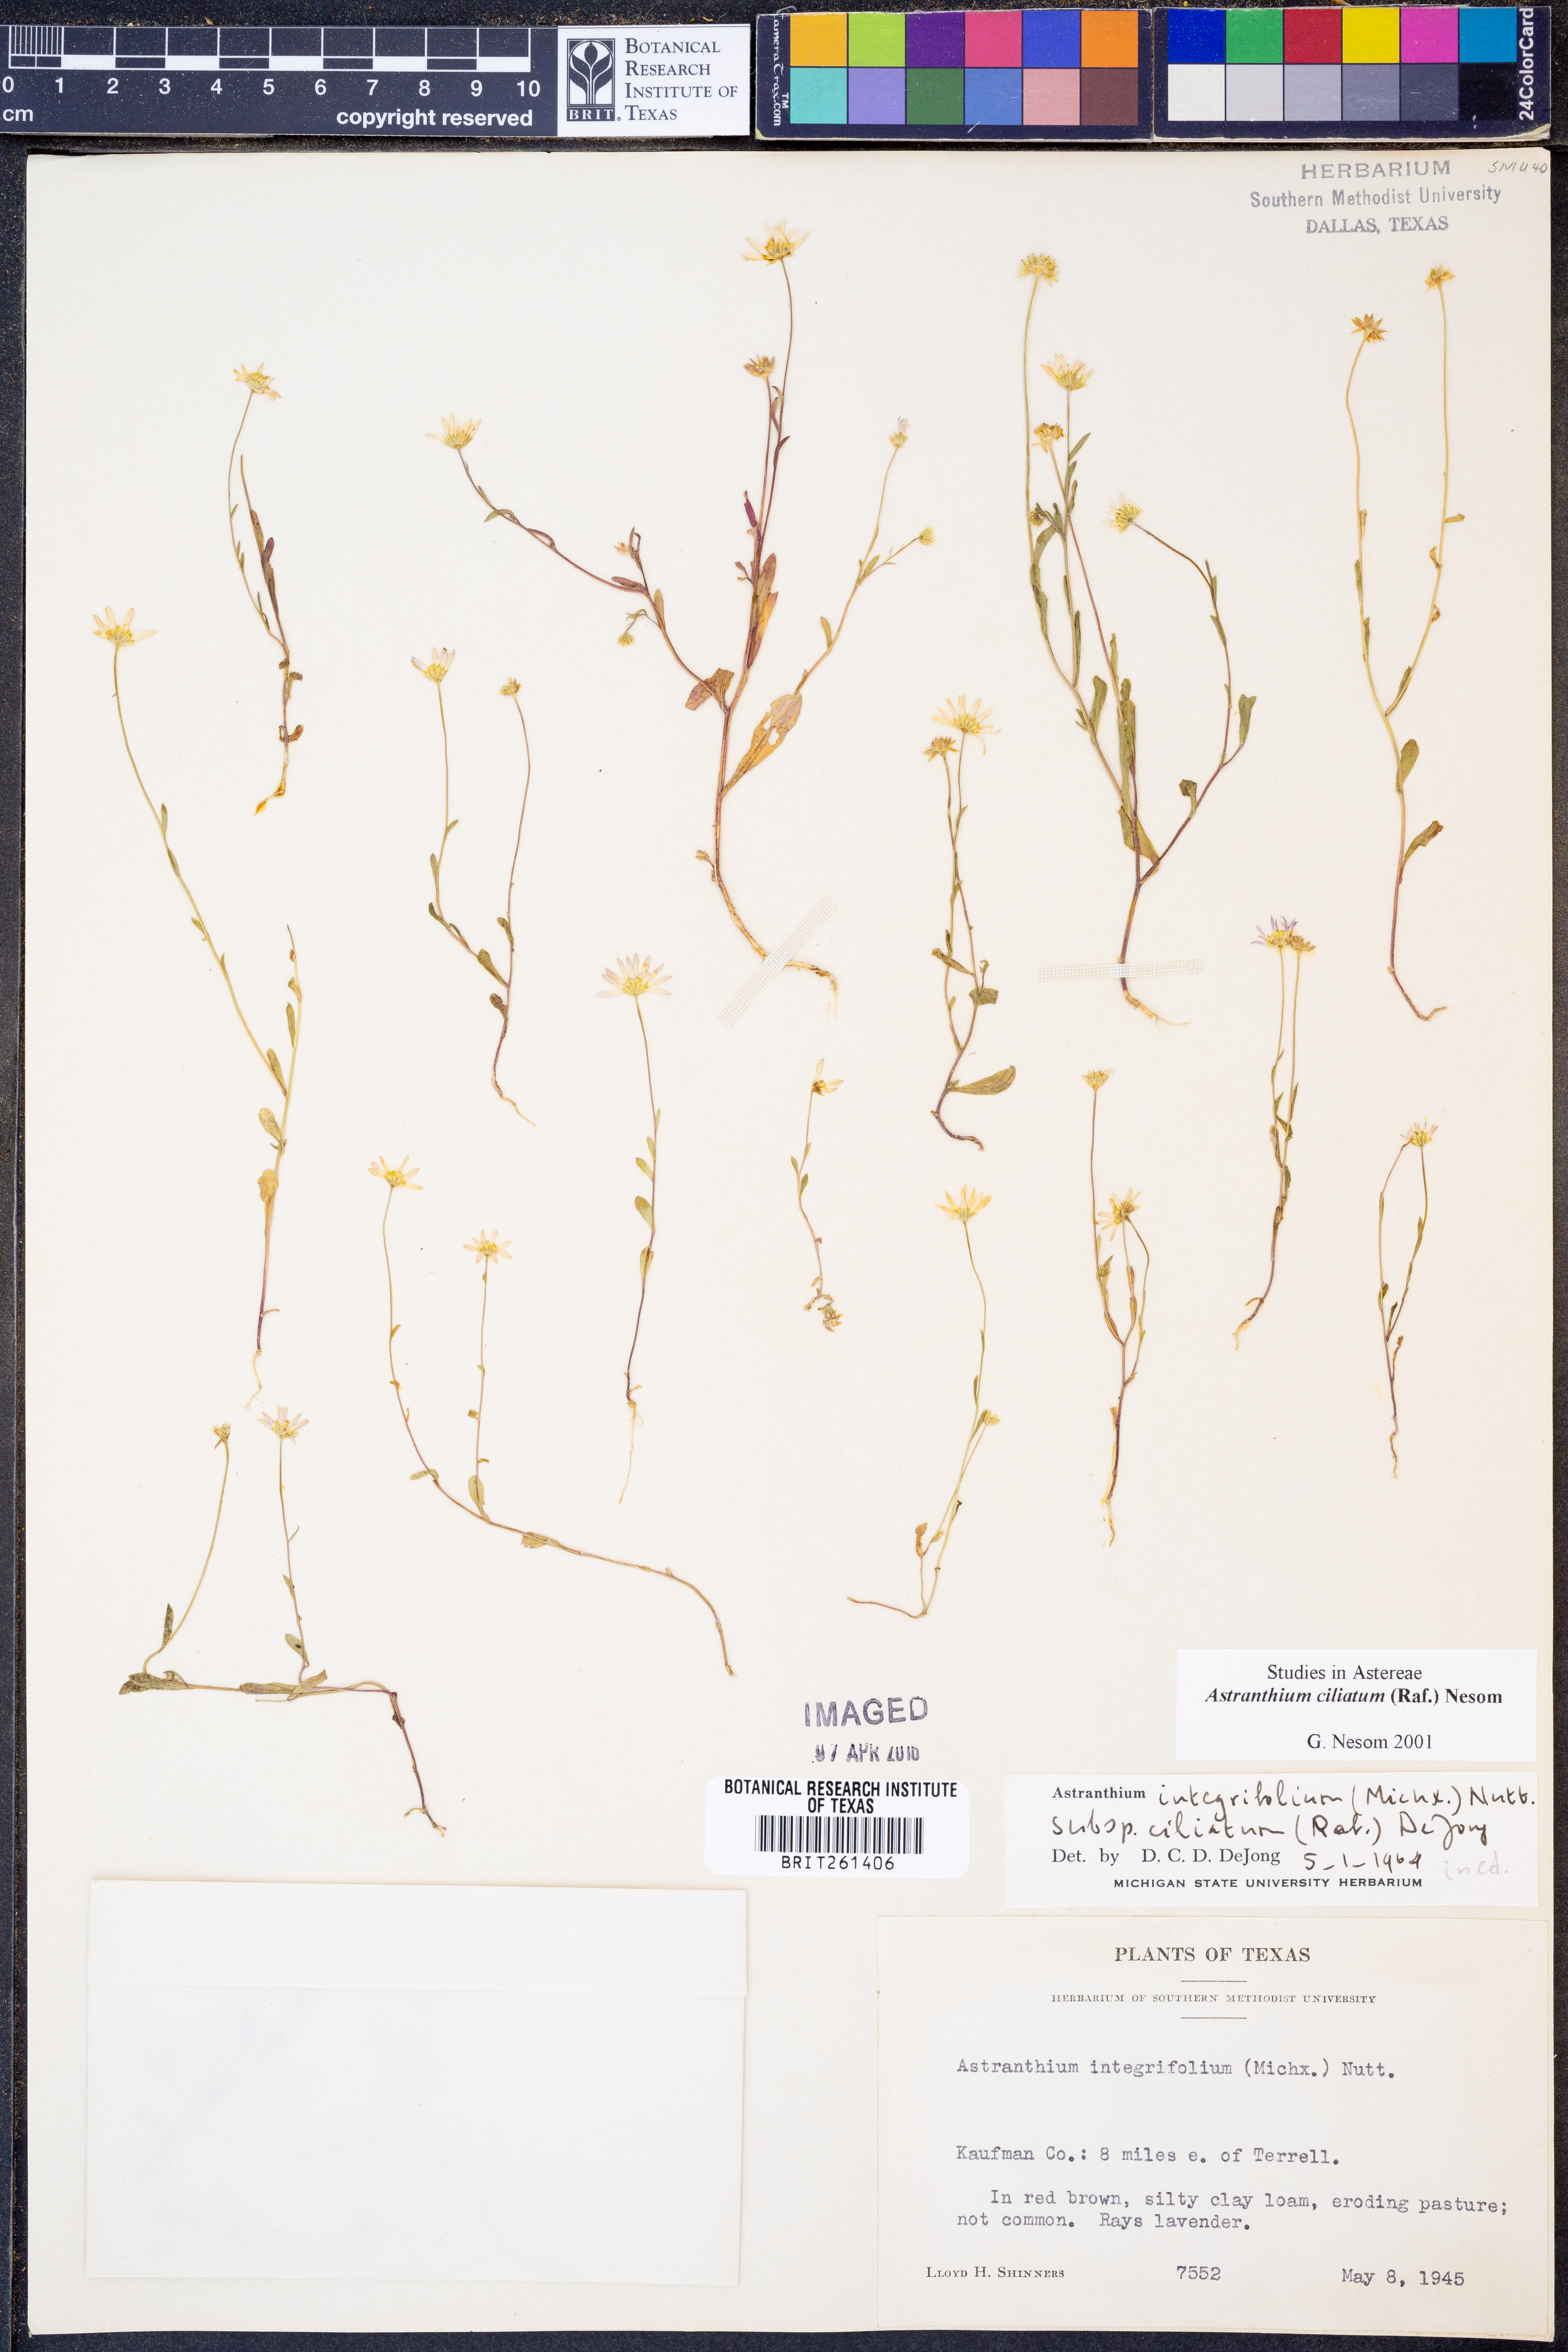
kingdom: Plantae
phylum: Tracheophyta
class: Magnoliopsida
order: Asterales
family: Asteraceae
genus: Astranthium
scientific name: Astranthium ciliatum
